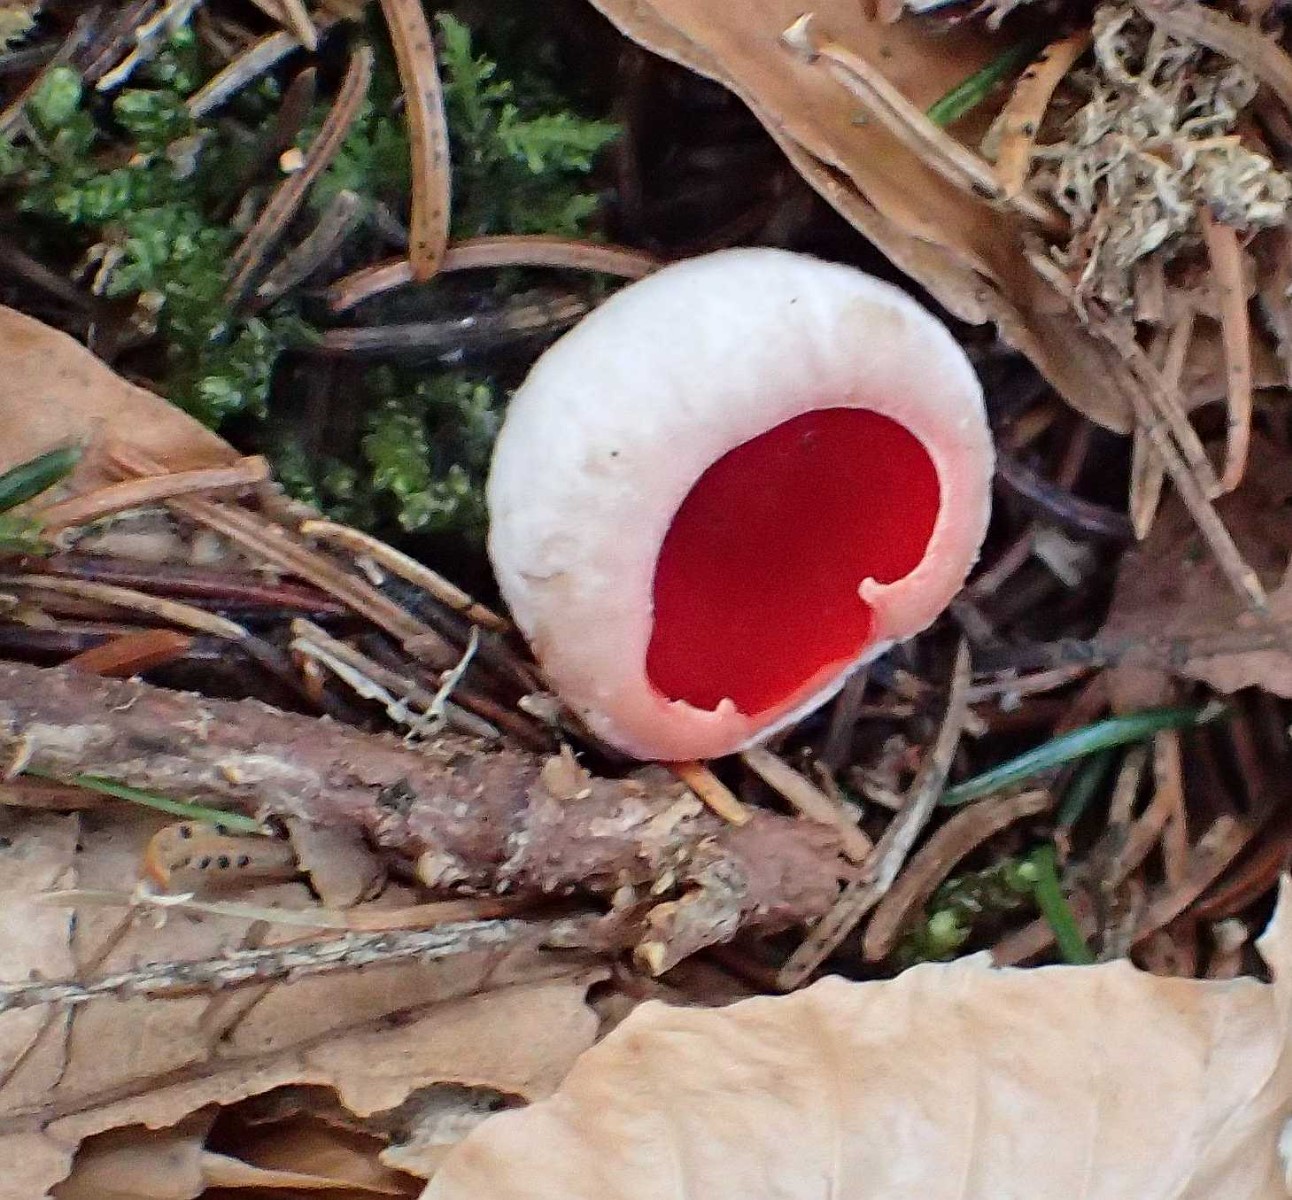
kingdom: Fungi
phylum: Ascomycota
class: Pezizomycetes
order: Pezizales
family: Sarcoscyphaceae
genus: Sarcoscypha
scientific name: Sarcoscypha austriaca
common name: krølhåret pragtbæger
